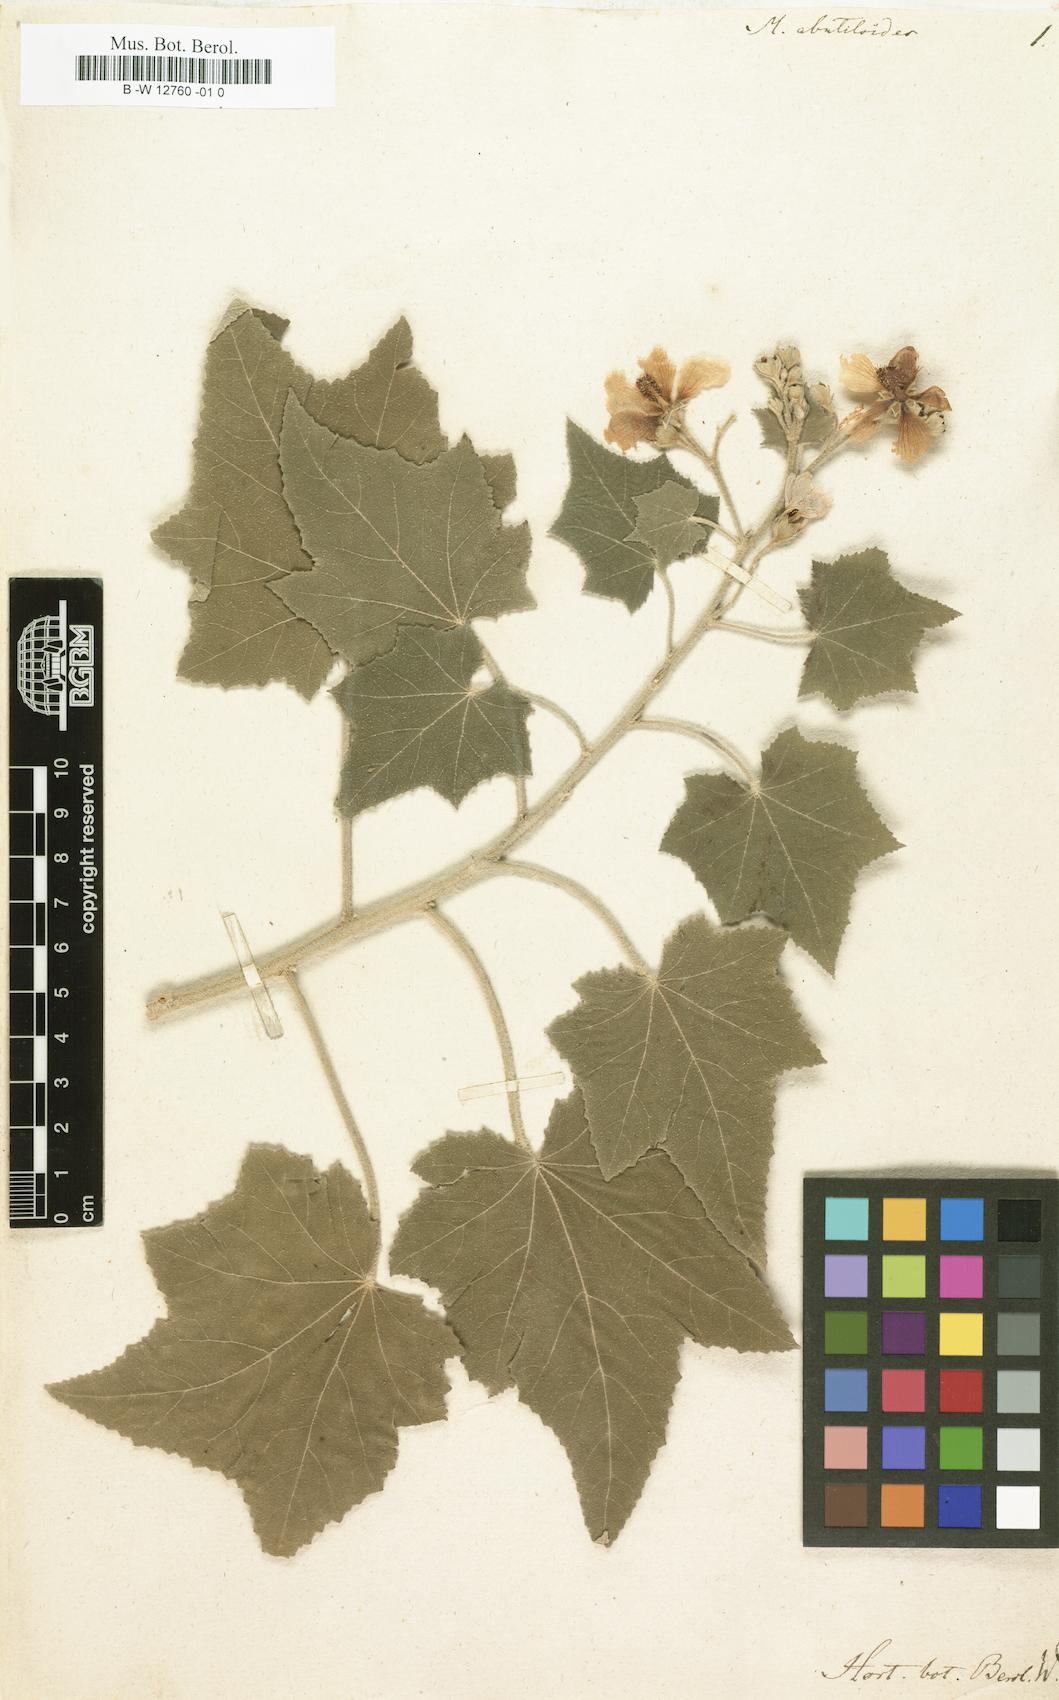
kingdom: Plantae
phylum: Tracheophyta
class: Magnoliopsida
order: Malvales
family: Malvaceae
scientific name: Malvaceae
